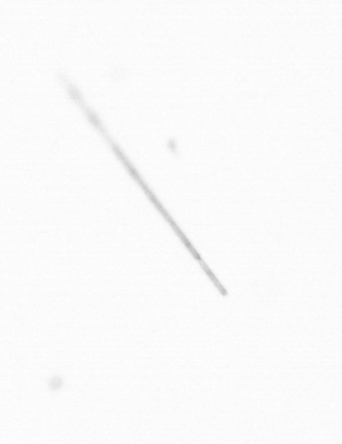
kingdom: Chromista
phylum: Ochrophyta
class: Bacillariophyceae
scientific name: Bacillariophyceae
